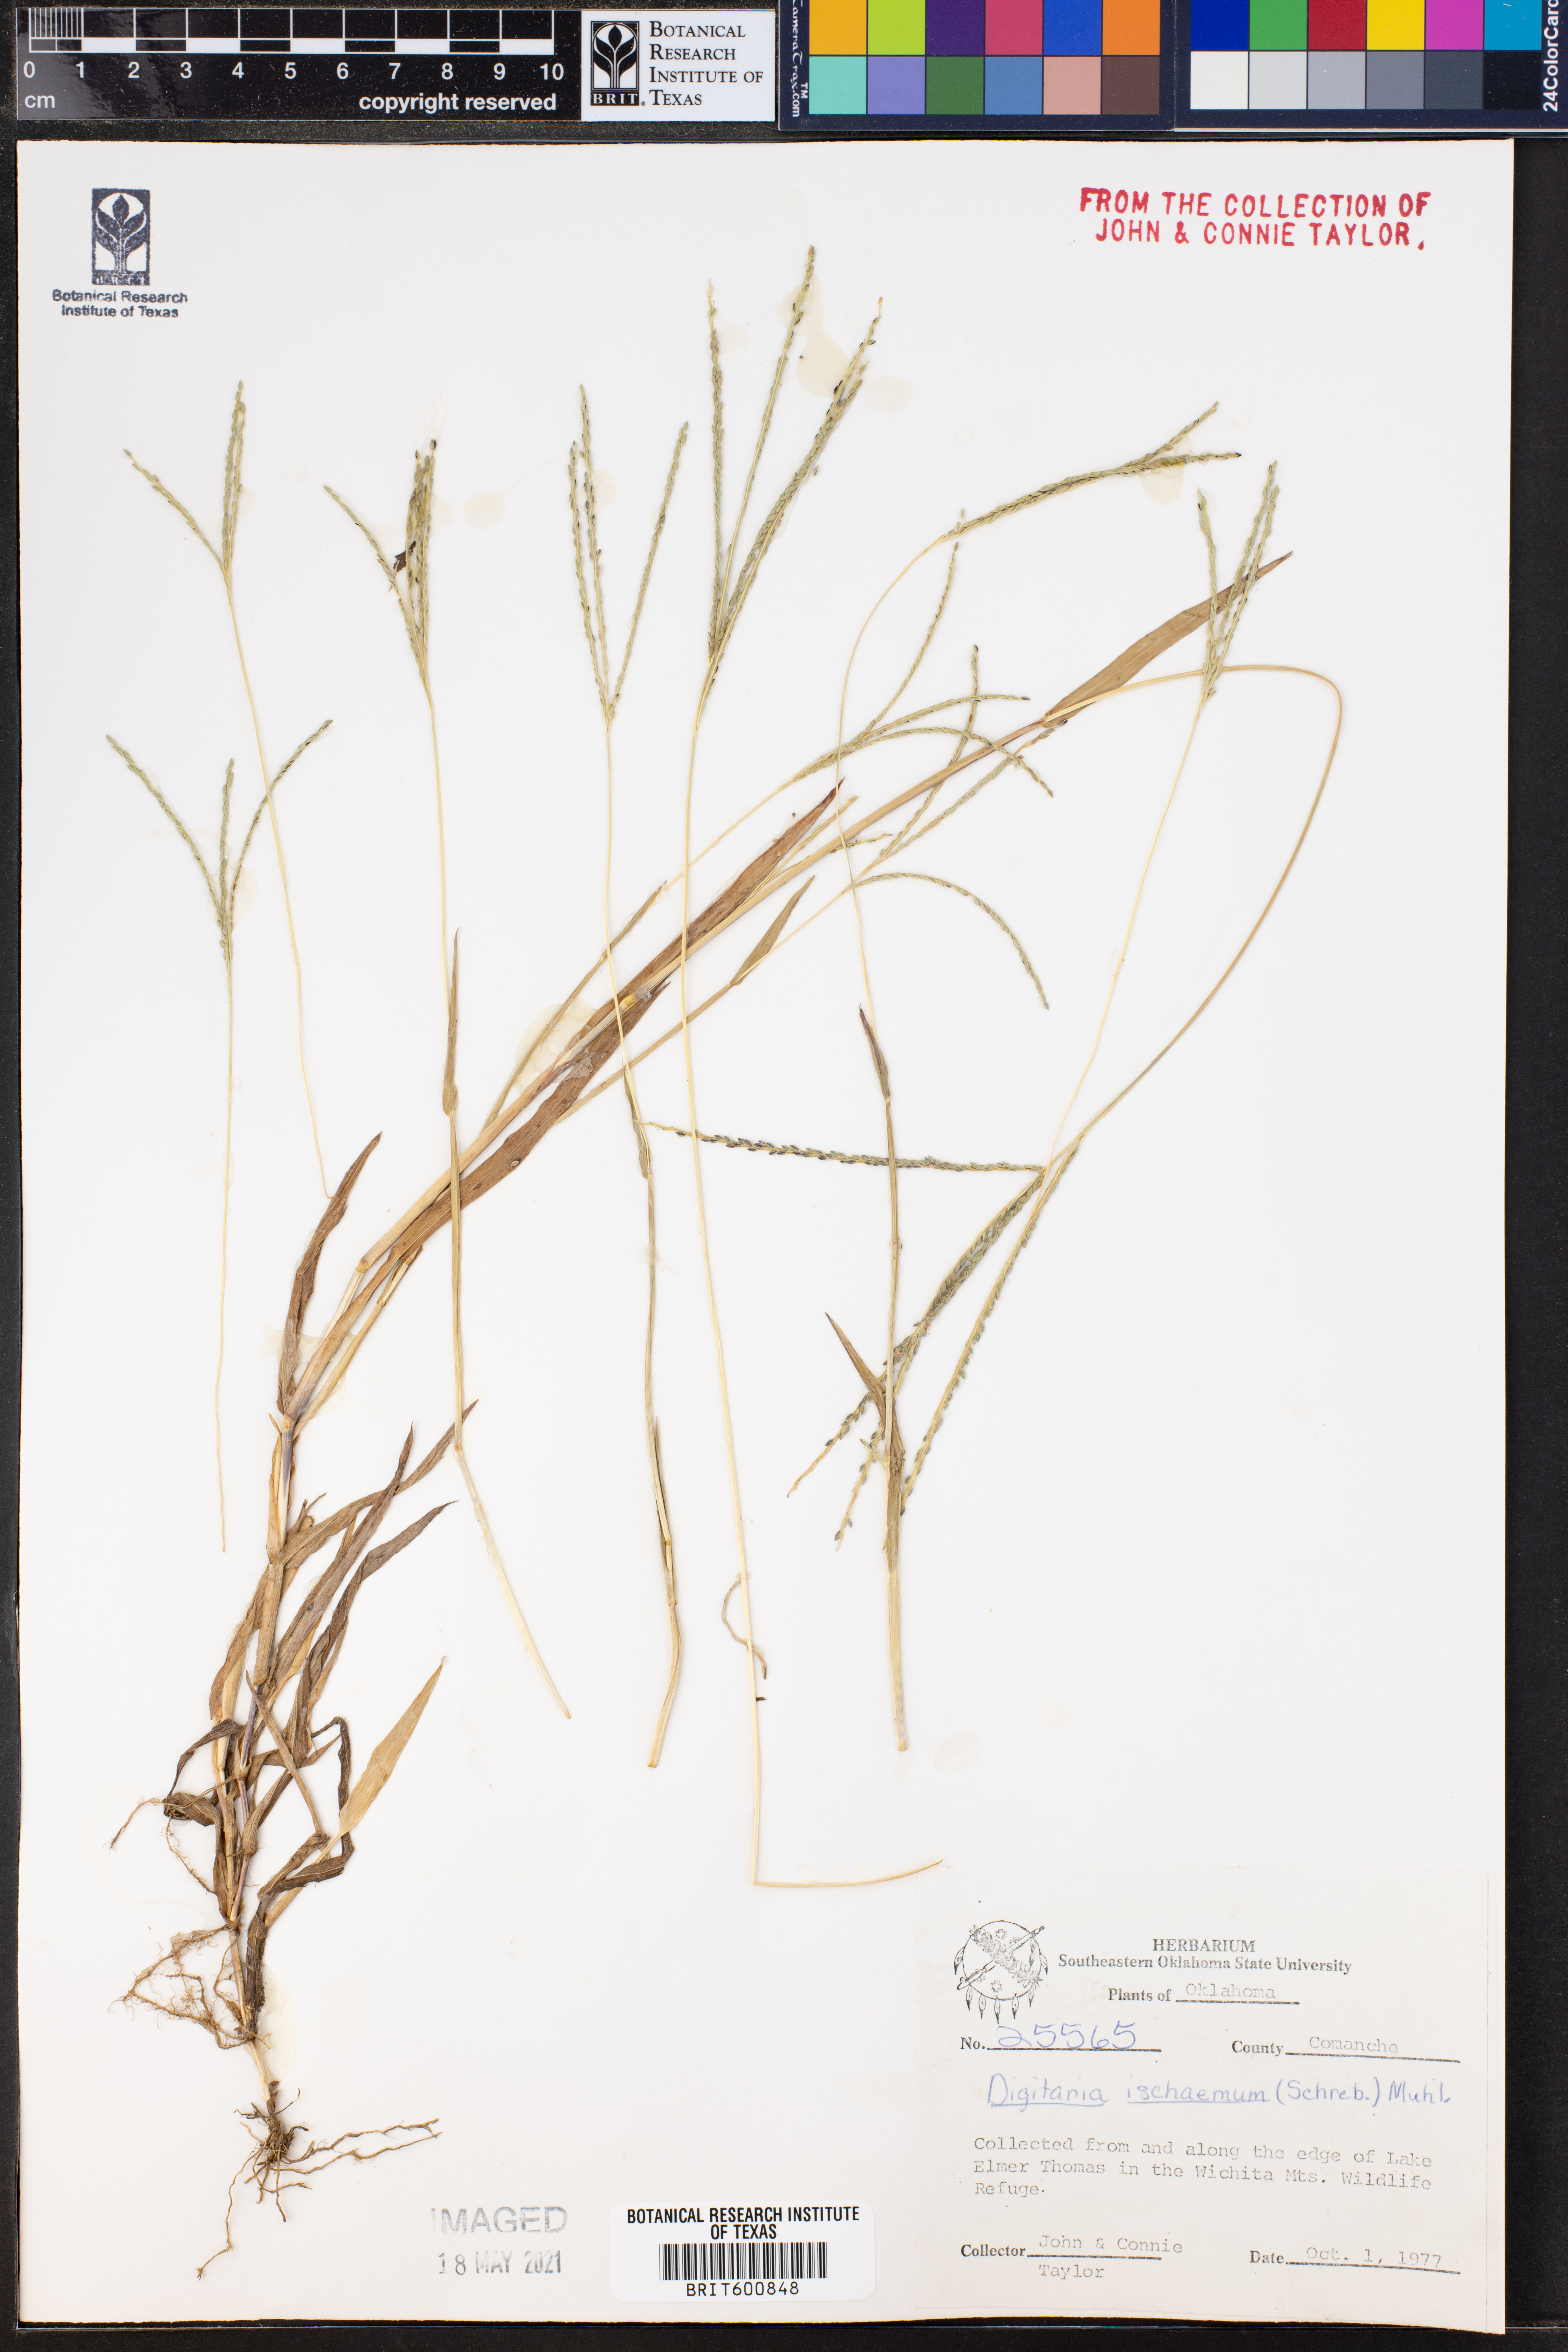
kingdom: Plantae
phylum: Tracheophyta
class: Liliopsida
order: Poales
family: Poaceae
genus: Digitaria
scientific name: Digitaria ischaemum
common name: Smooth crabgrass
